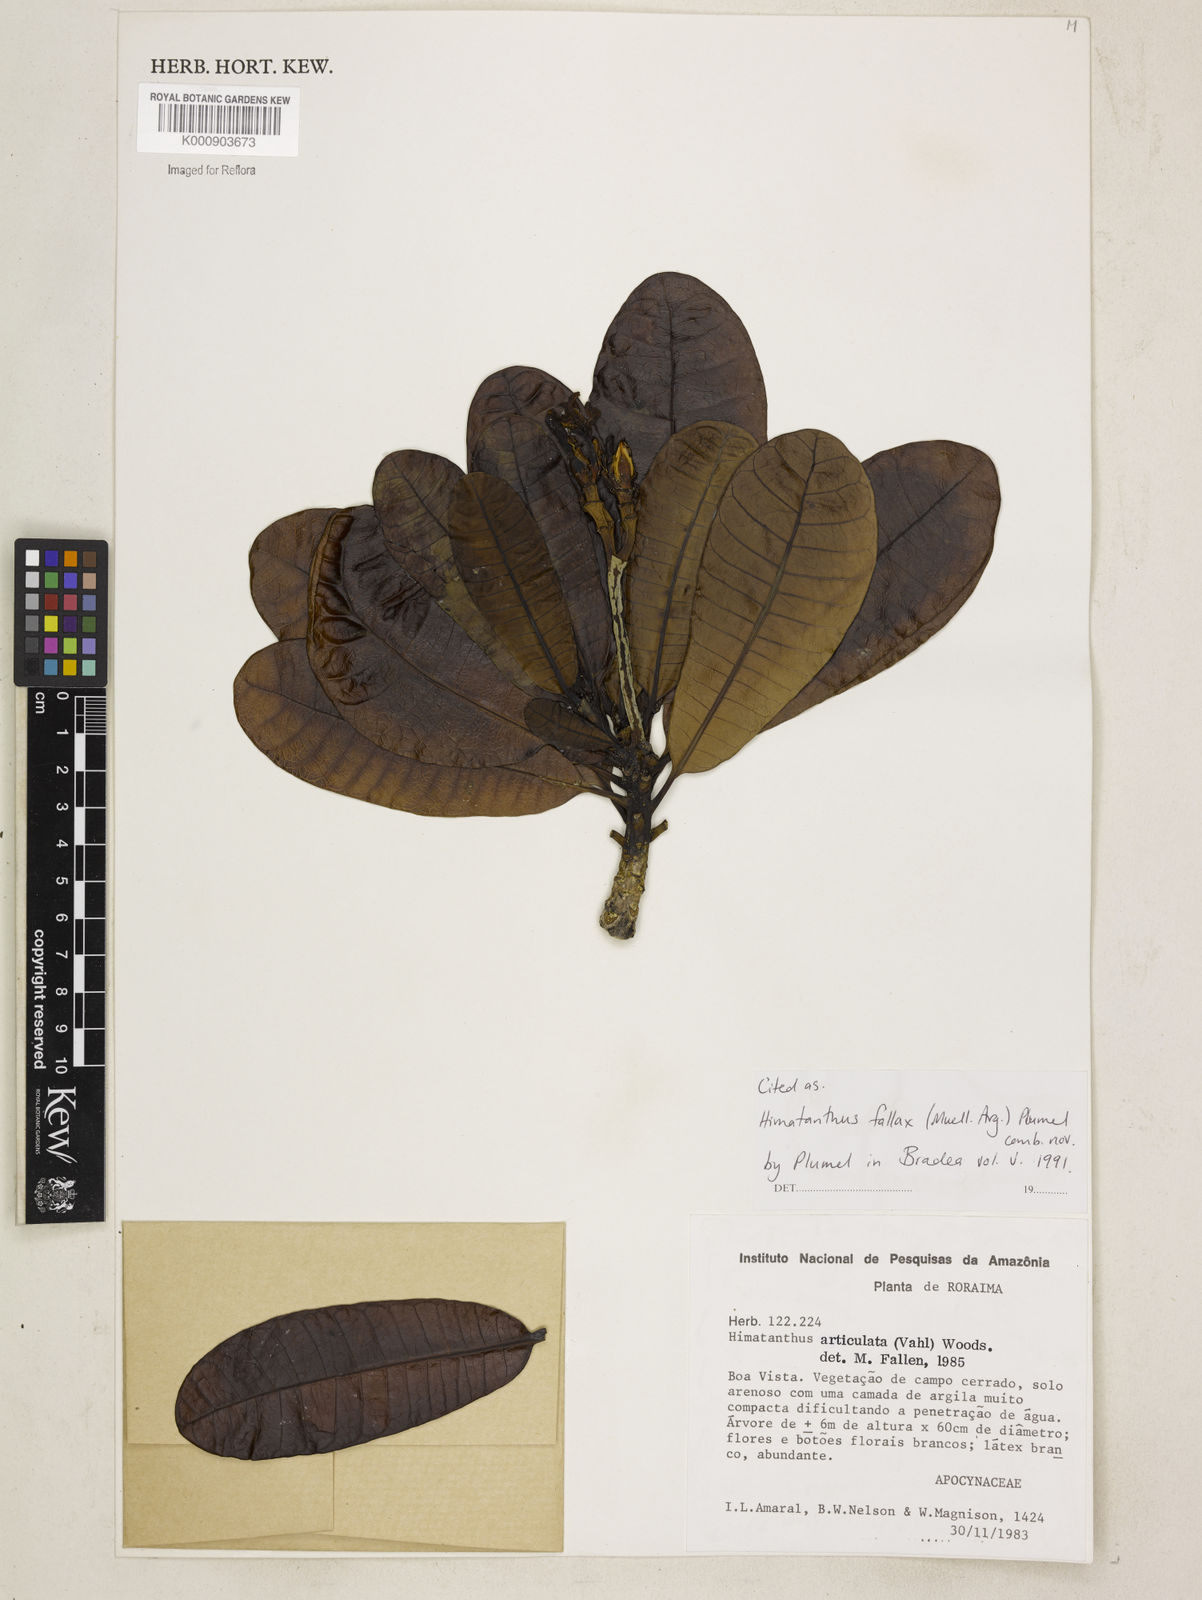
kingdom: Plantae
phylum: Tracheophyta
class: Magnoliopsida
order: Gentianales
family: Apocynaceae
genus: Himatanthus
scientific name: Himatanthus
